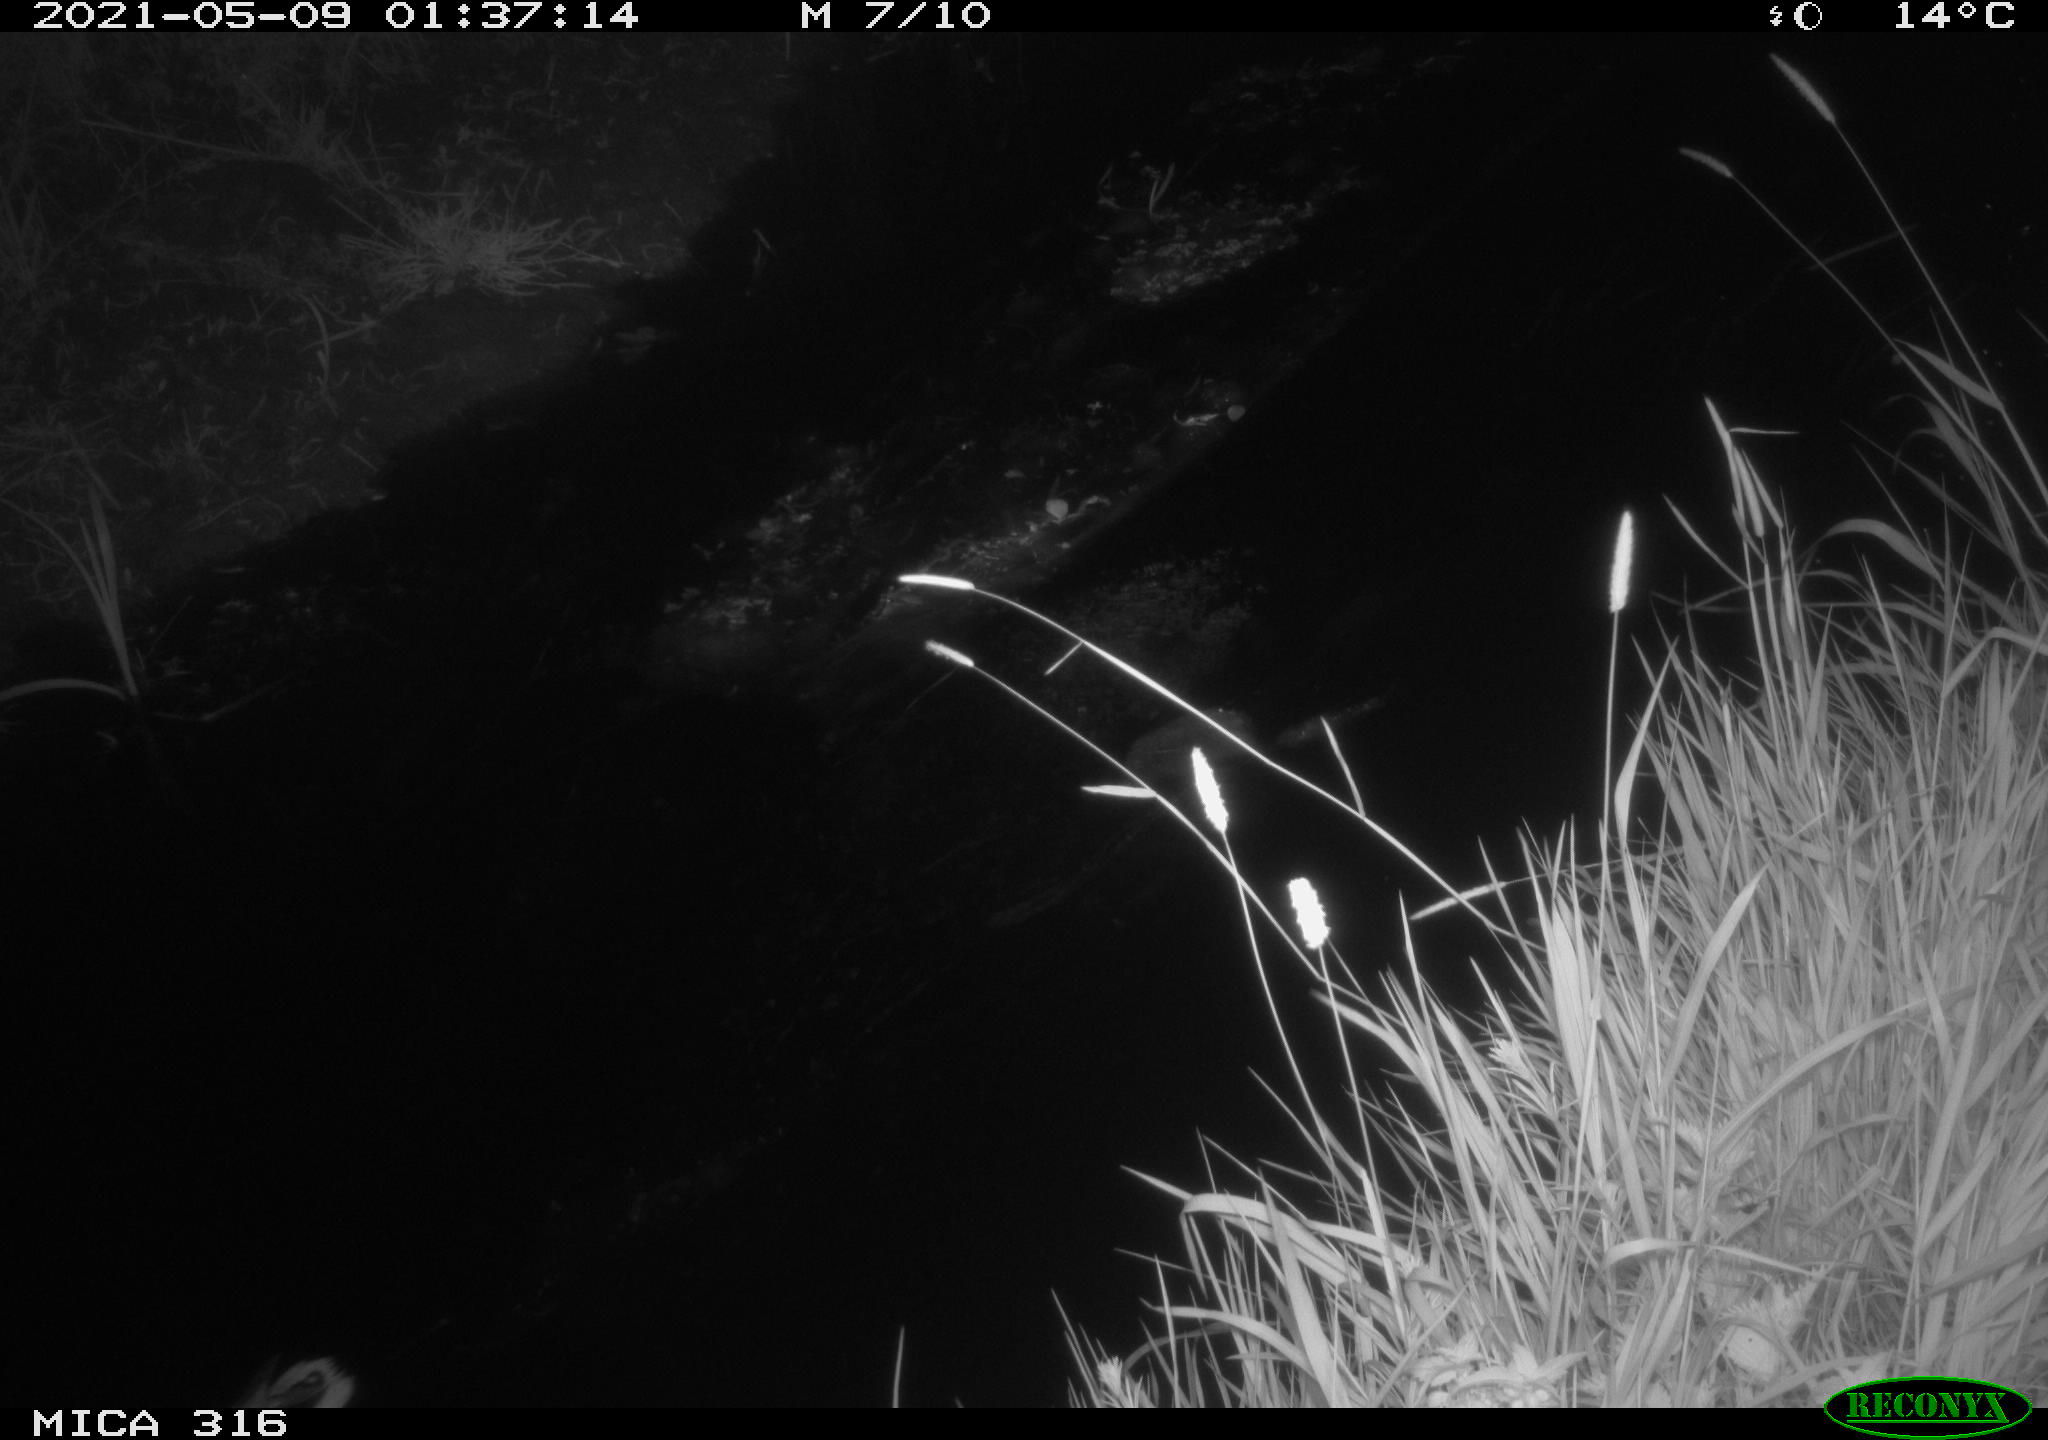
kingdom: Animalia
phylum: Chordata
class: Aves
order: Anseriformes
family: Anatidae
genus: Anas
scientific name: Anas platyrhynchos
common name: Mallard
